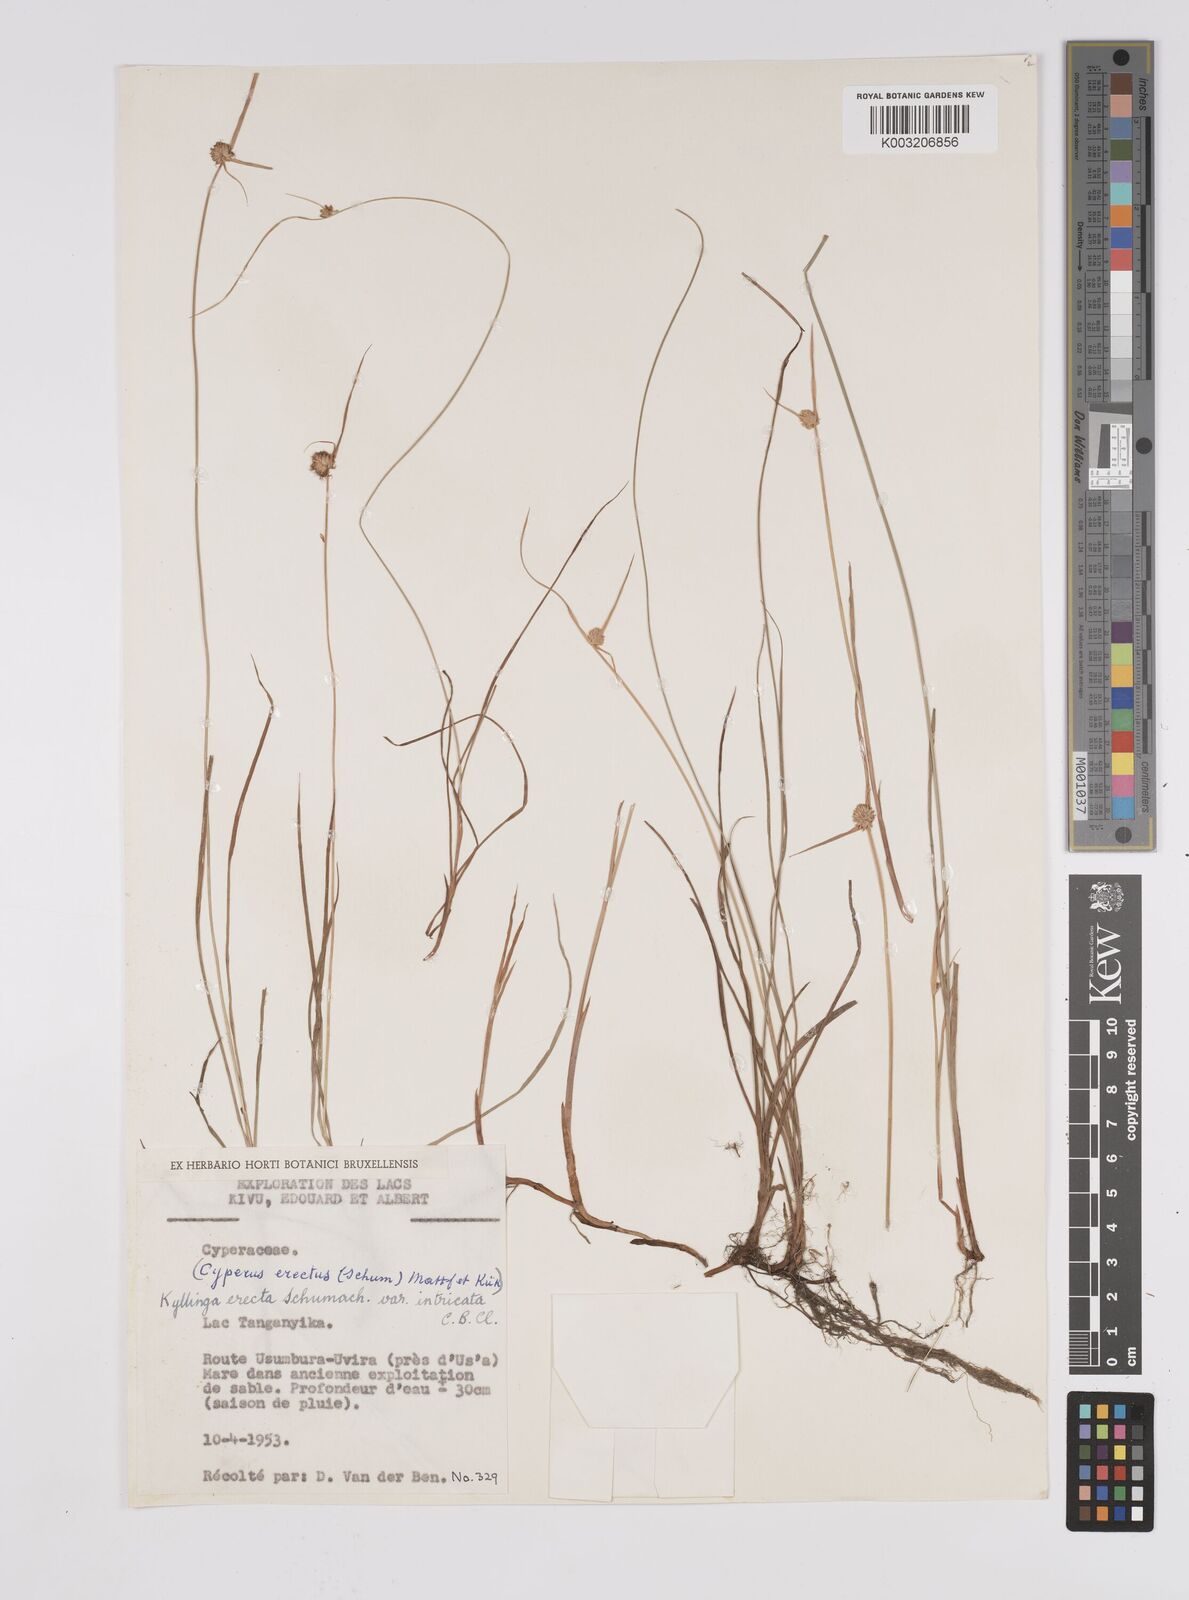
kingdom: Plantae
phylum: Tracheophyta
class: Liliopsida
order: Poales
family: Cyperaceae
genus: Cyperus
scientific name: Cyperus erectus
